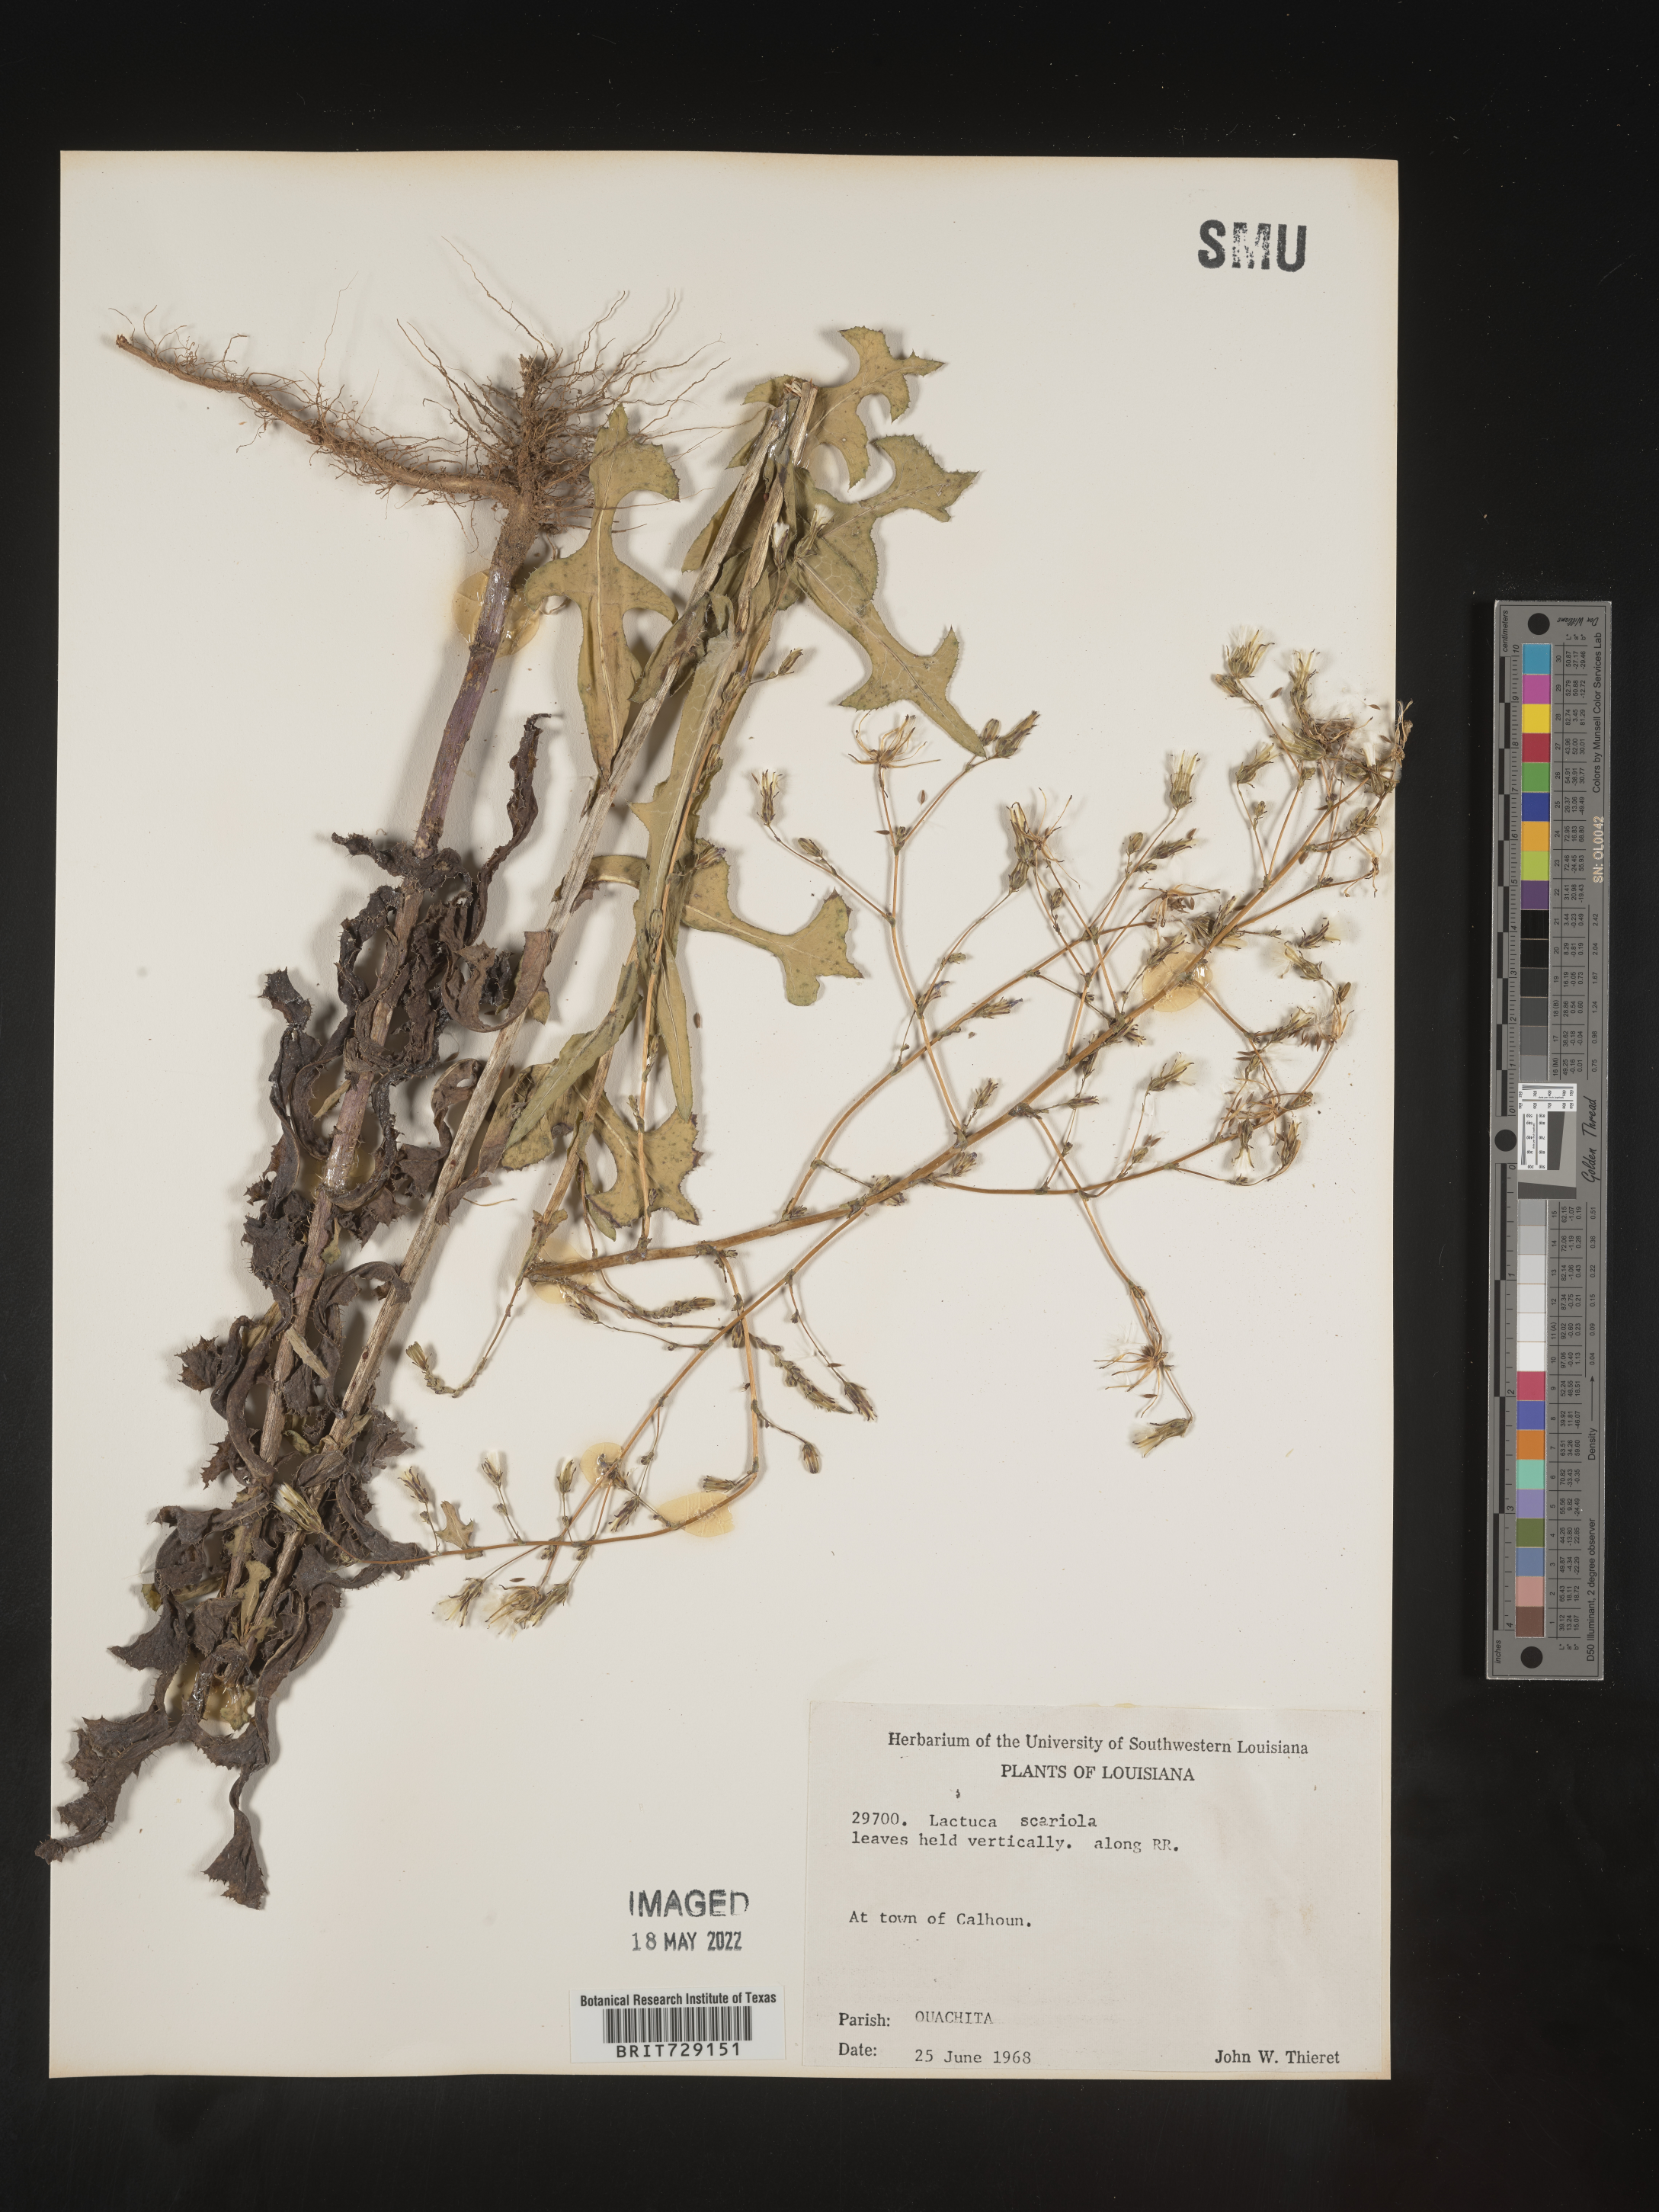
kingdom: Plantae
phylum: Tracheophyta
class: Magnoliopsida
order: Asterales
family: Asteraceae
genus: Lactuca
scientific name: Lactuca serriola
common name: Prickly lettuce
